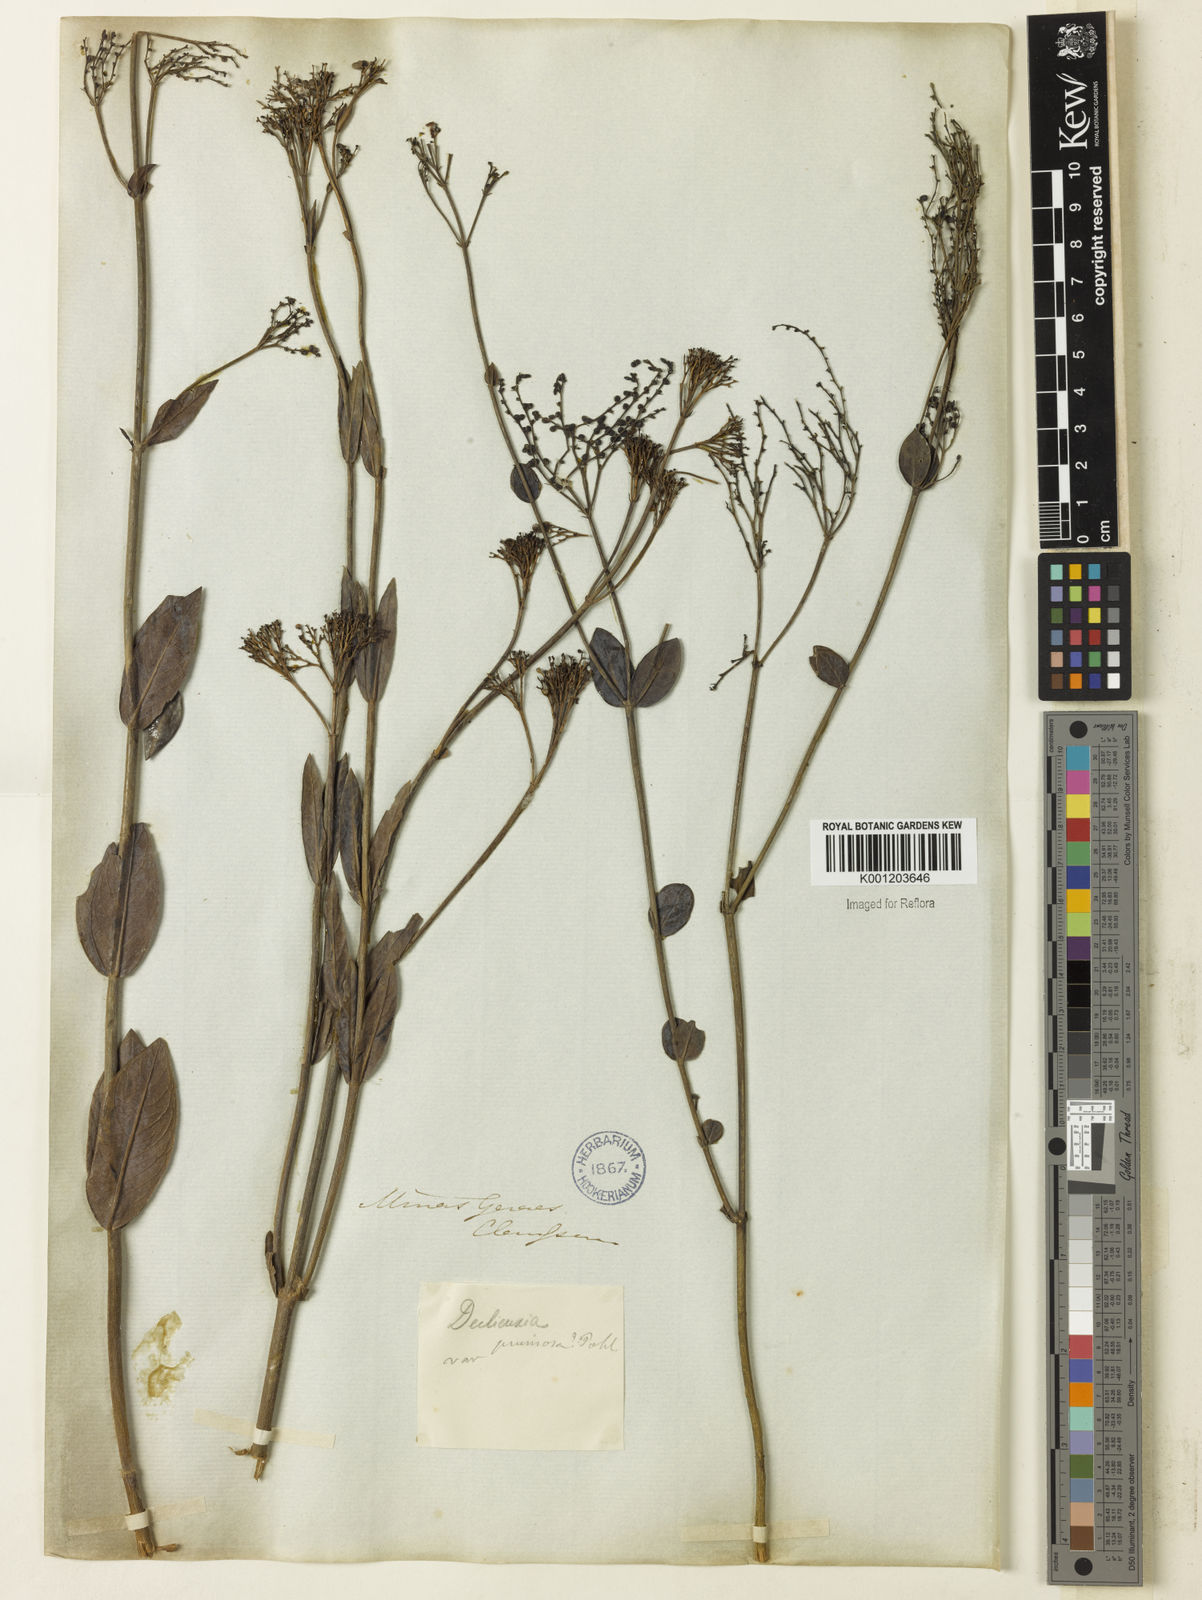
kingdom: Plantae
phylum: Tracheophyta
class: Magnoliopsida
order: Gentianales
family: Rubiaceae
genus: Declieuxia
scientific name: Declieuxia pruinosa
